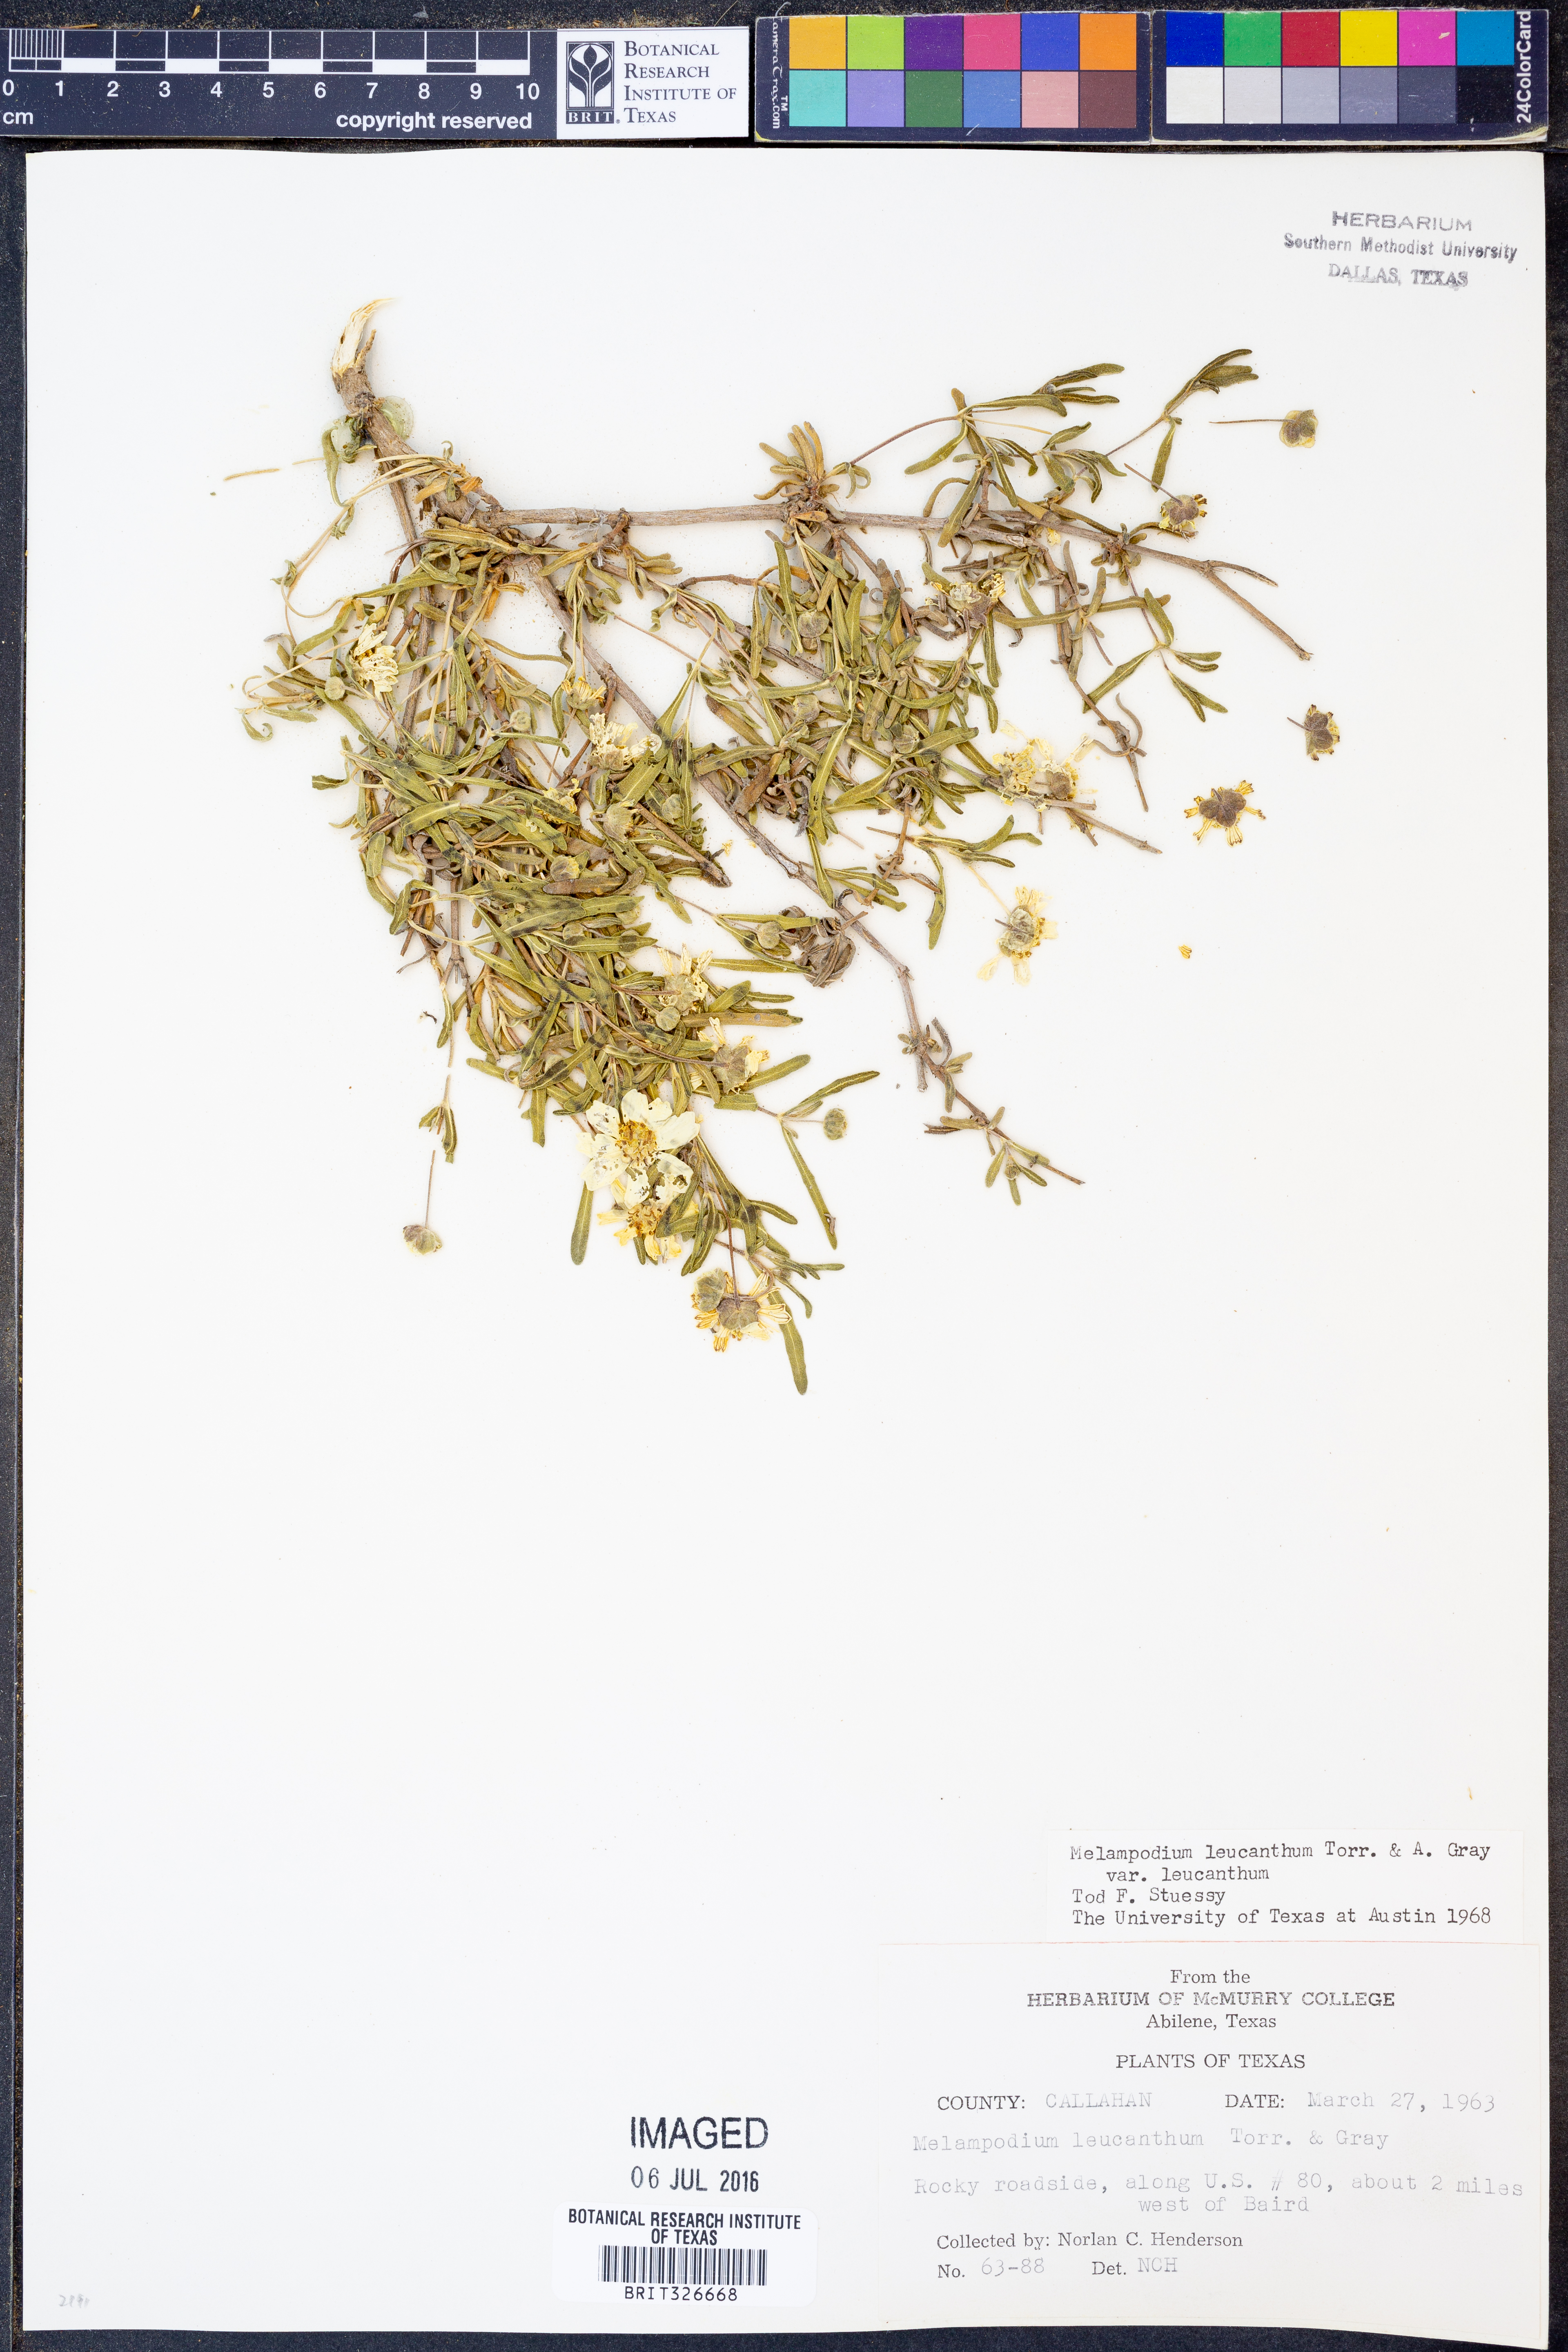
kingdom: Plantae
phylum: Tracheophyta
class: Magnoliopsida
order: Asterales
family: Asteraceae
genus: Melampodium
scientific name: Melampodium leucanthum
